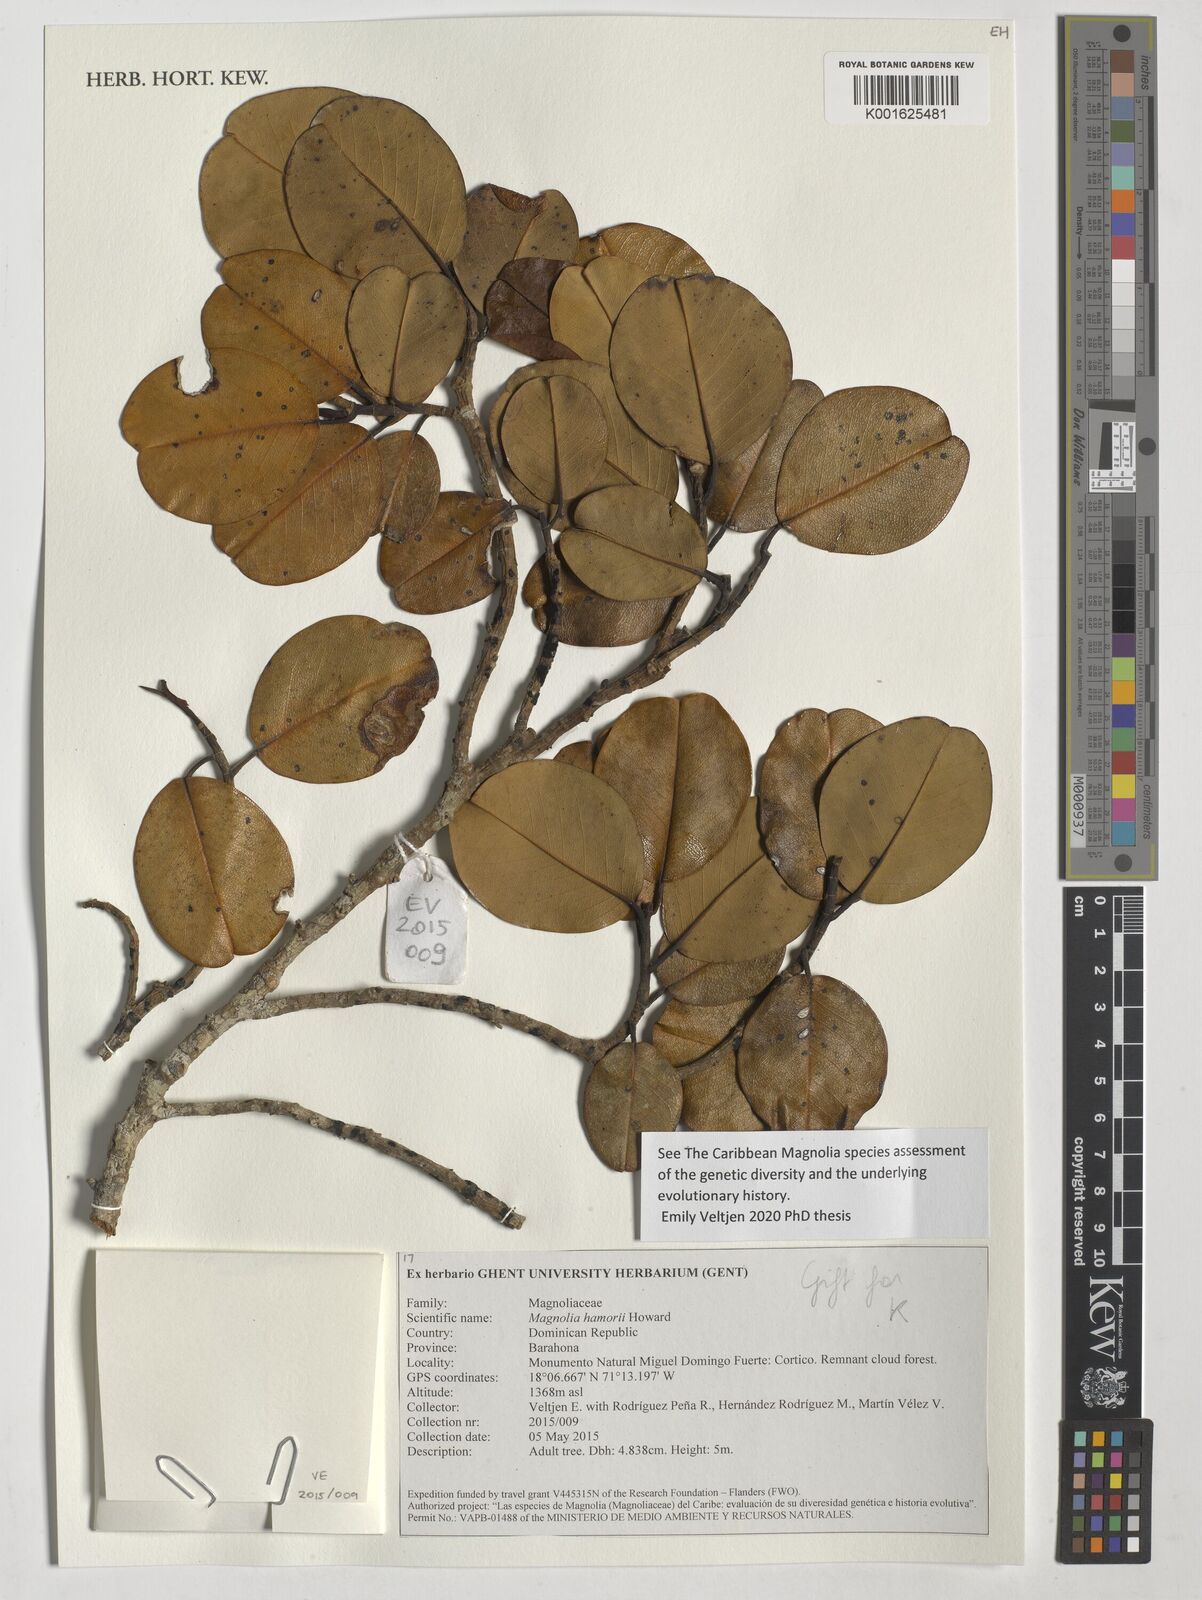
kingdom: Plantae
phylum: Tracheophyta
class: Magnoliopsida
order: Magnoliales
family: Magnoliaceae
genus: Magnolia
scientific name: Magnolia hamorii
